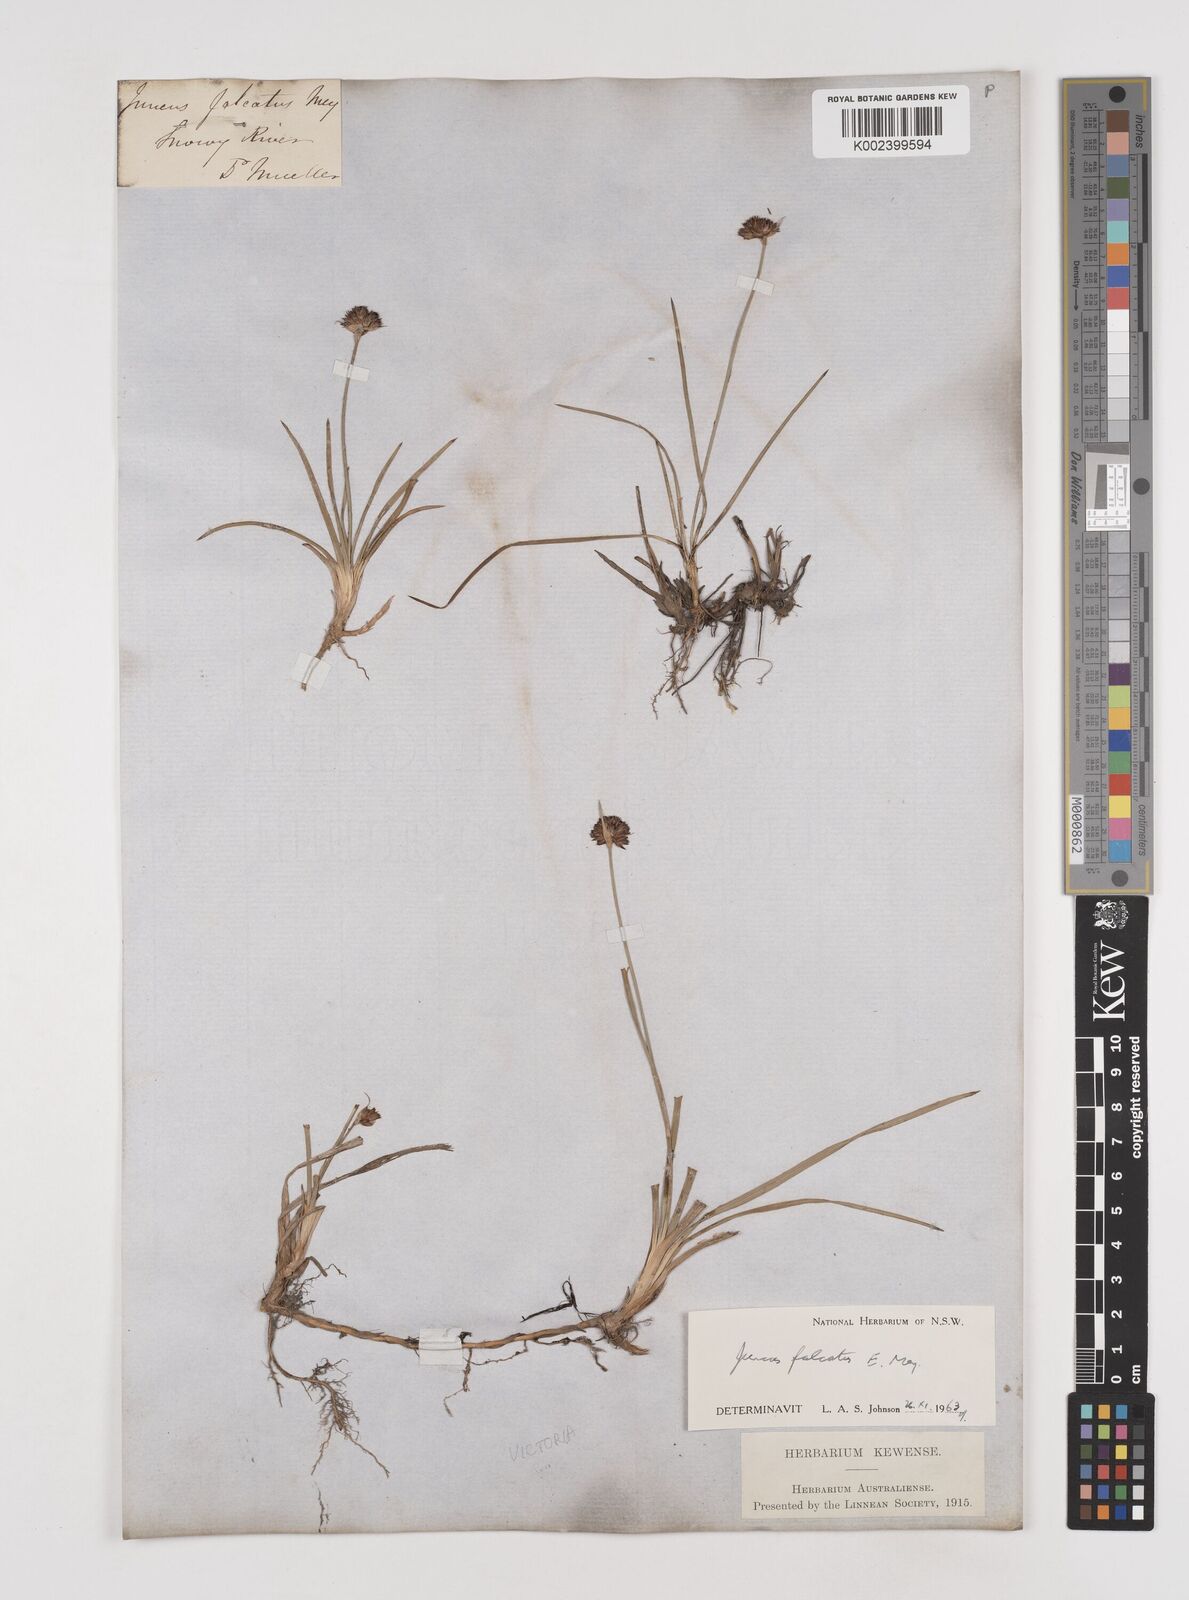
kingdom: Plantae
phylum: Tracheophyta
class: Liliopsida
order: Poales
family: Juncaceae
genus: Juncus
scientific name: Juncus falcatus
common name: Sickle-leaf rush
